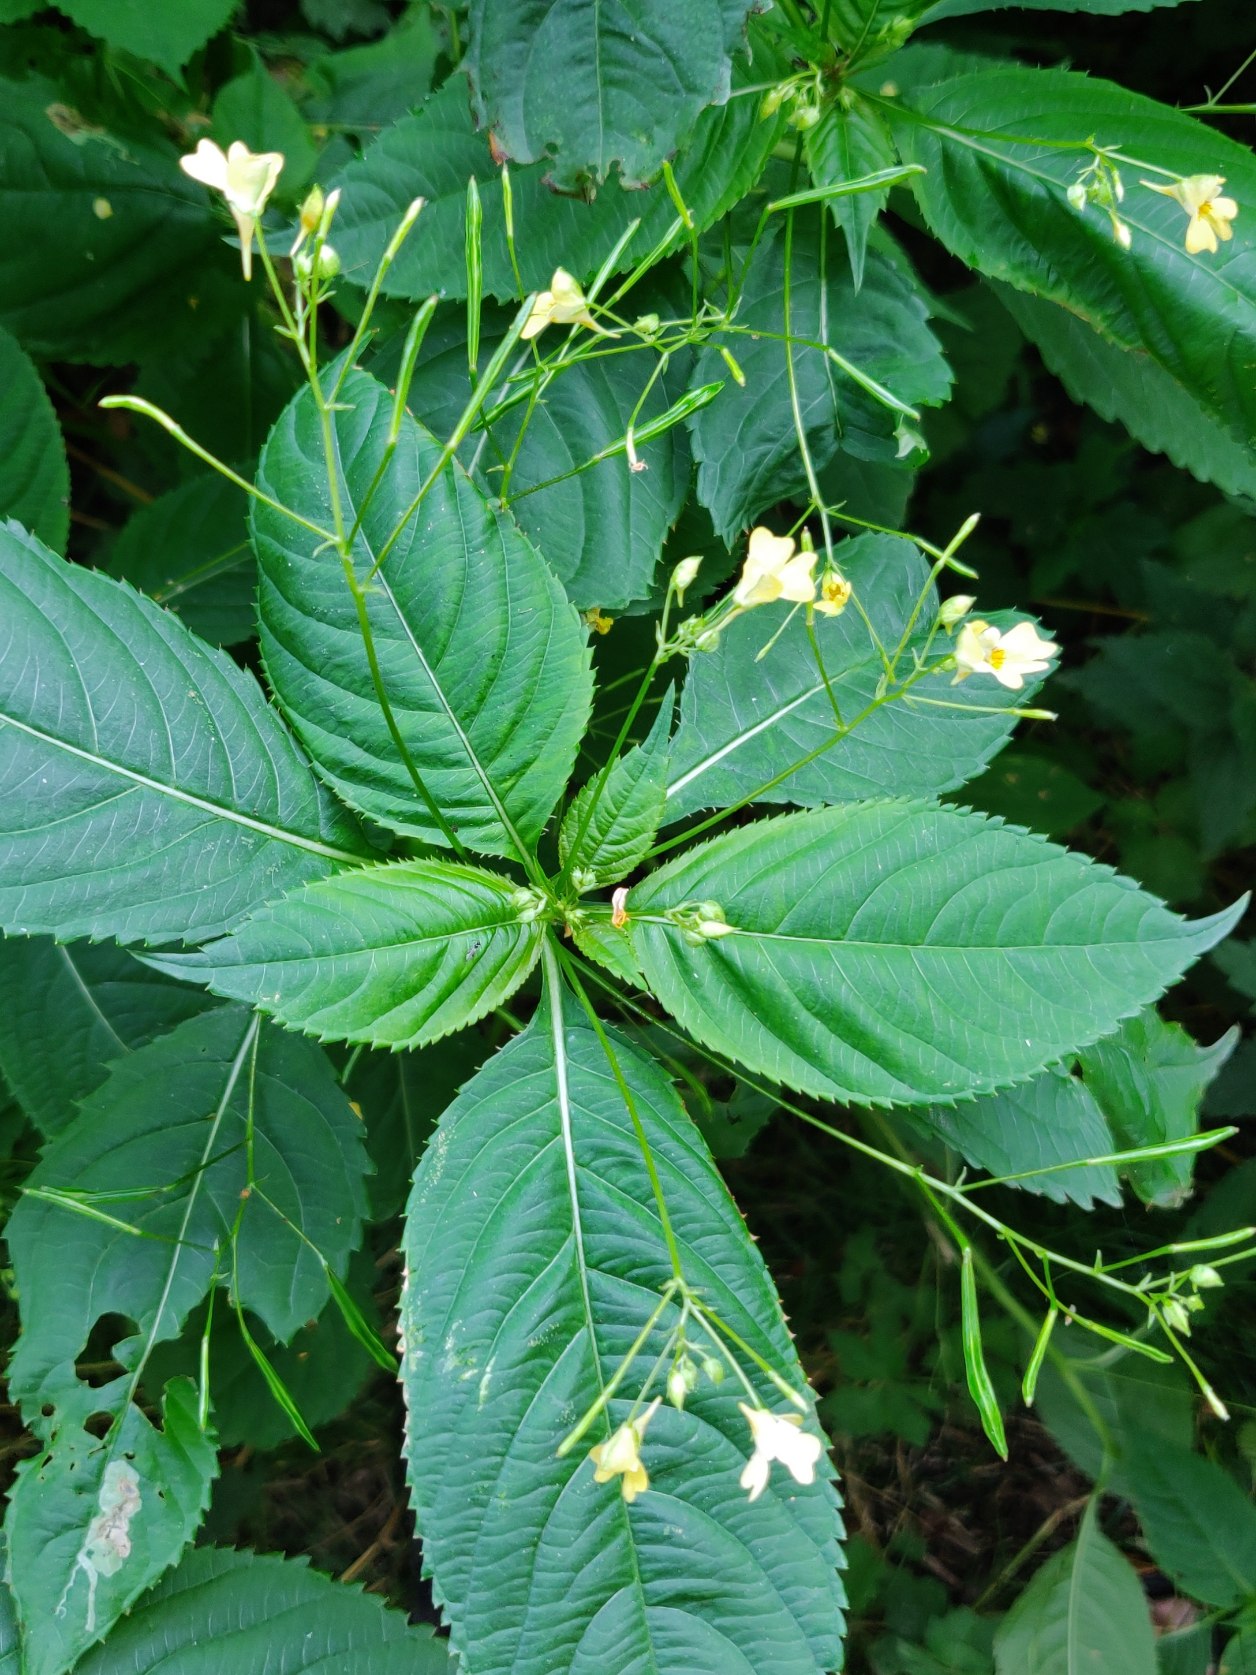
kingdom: Plantae
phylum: Tracheophyta
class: Magnoliopsida
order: Ericales
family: Balsaminaceae
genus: Impatiens
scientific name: Impatiens parviflora
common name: Småblomstret balsamin
